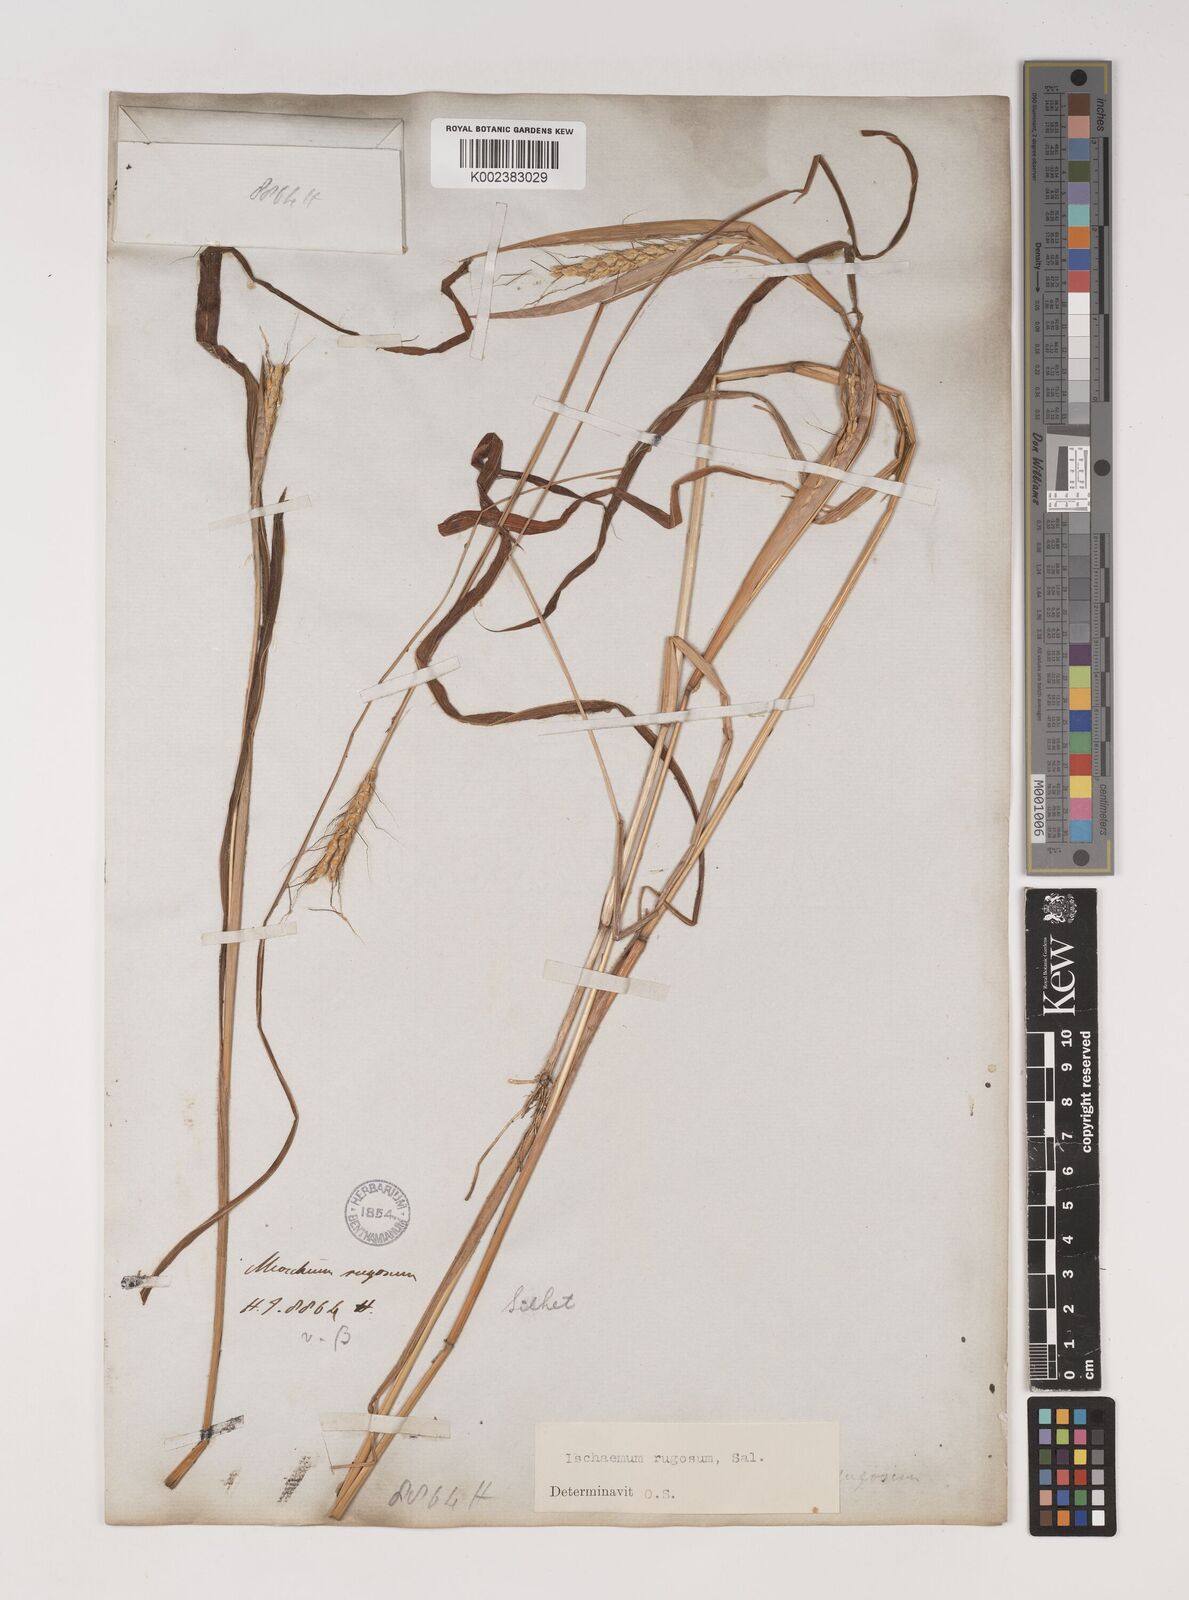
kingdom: Plantae
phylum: Tracheophyta
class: Liliopsida
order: Poales
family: Poaceae
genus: Ischaemum
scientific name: Ischaemum rugosum
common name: Saramatta grass
